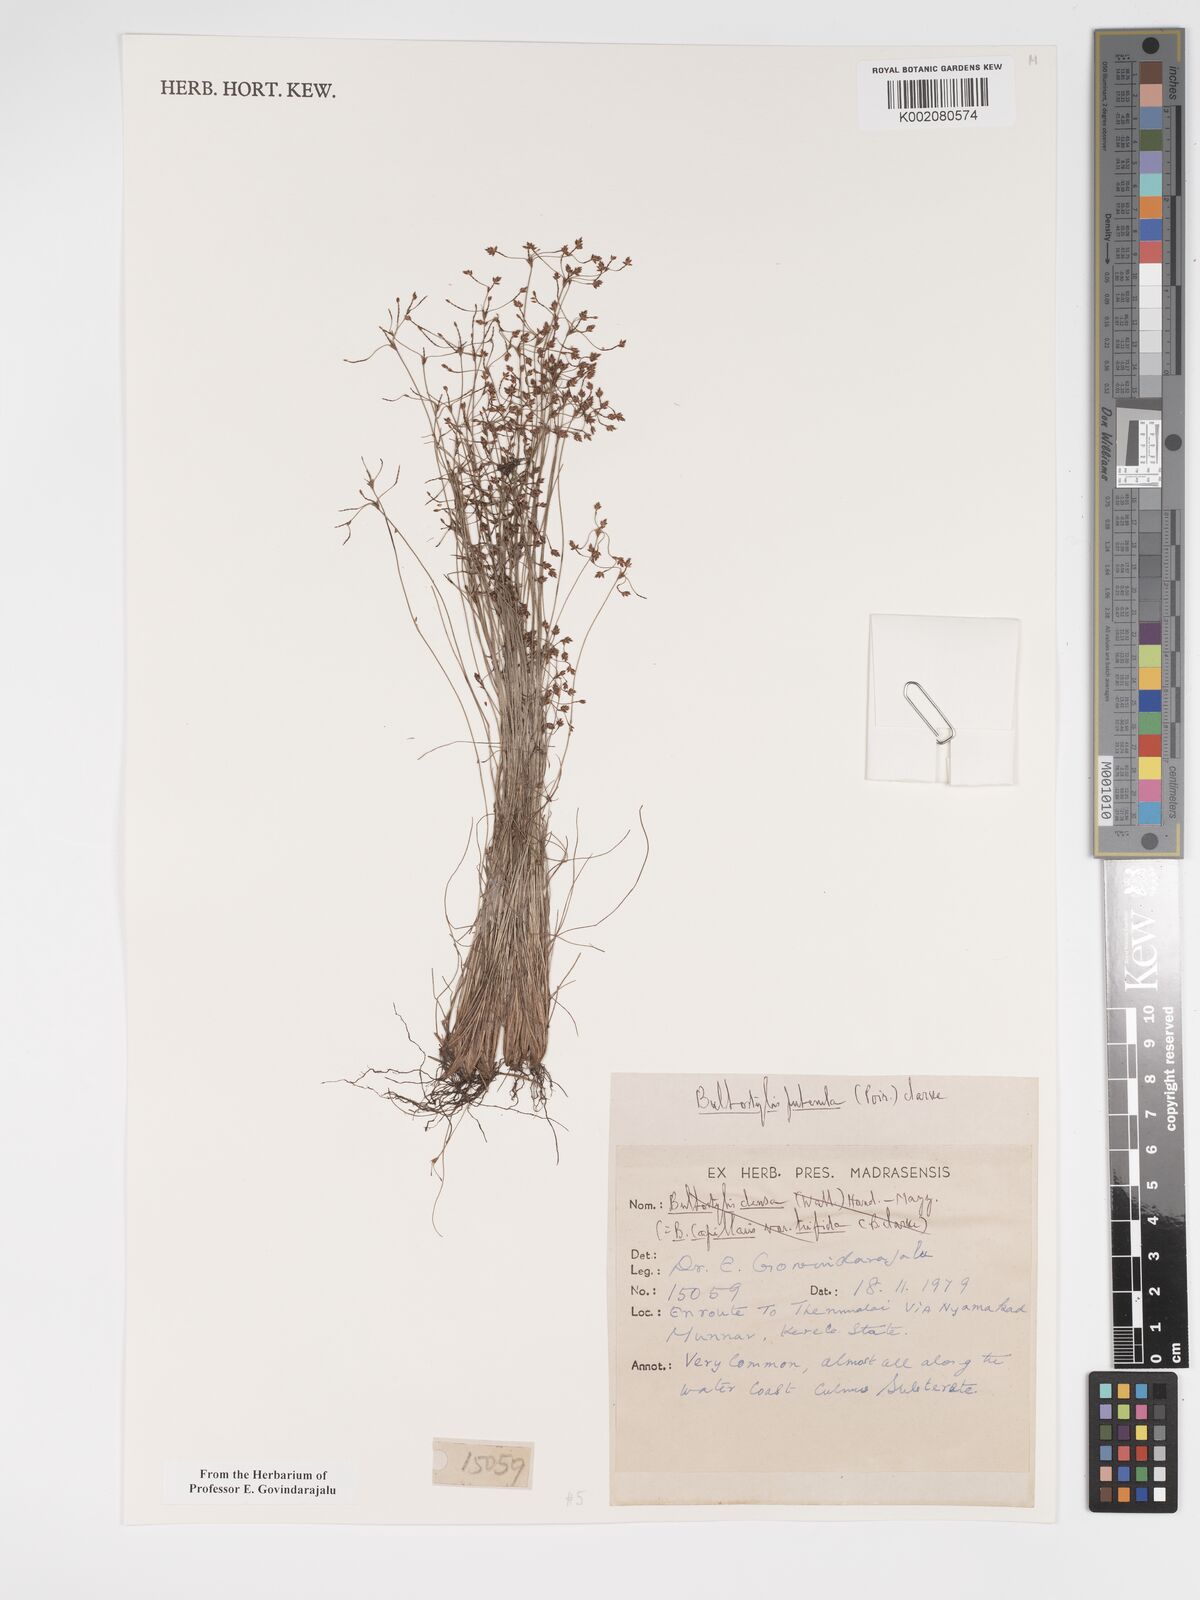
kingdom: Plantae
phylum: Tracheophyta
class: Liliopsida
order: Poales
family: Cyperaceae
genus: Bulbostylis
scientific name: Bulbostylis thouarsii
